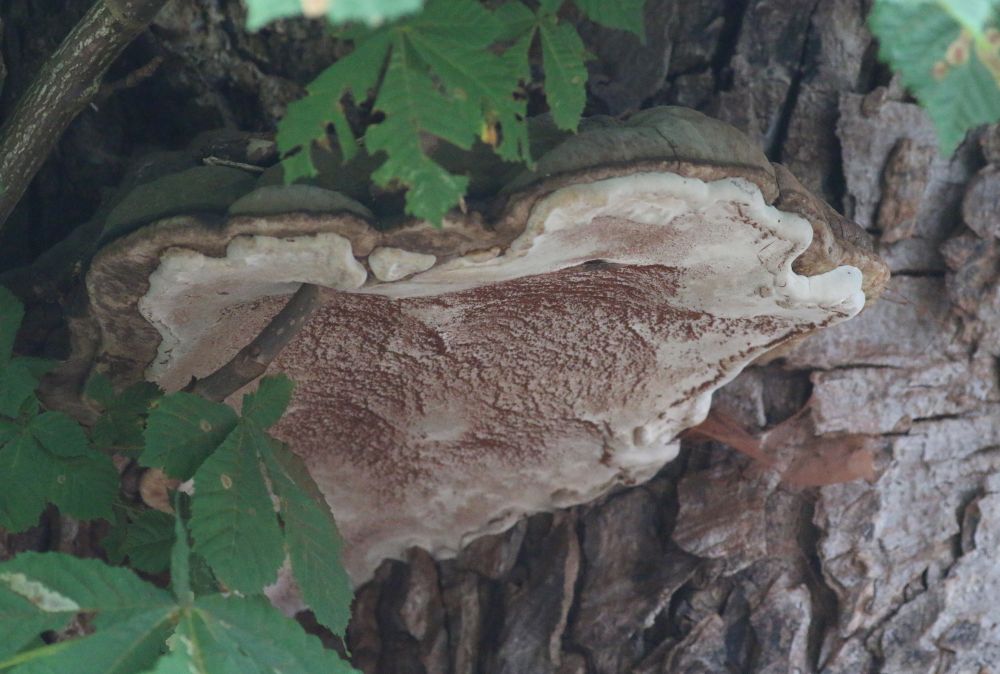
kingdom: Fungi
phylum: Basidiomycota
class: Agaricomycetes
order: Polyporales
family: Polyporaceae
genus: Ganoderma
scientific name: Ganoderma adspersum
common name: grov lakporesvamp
